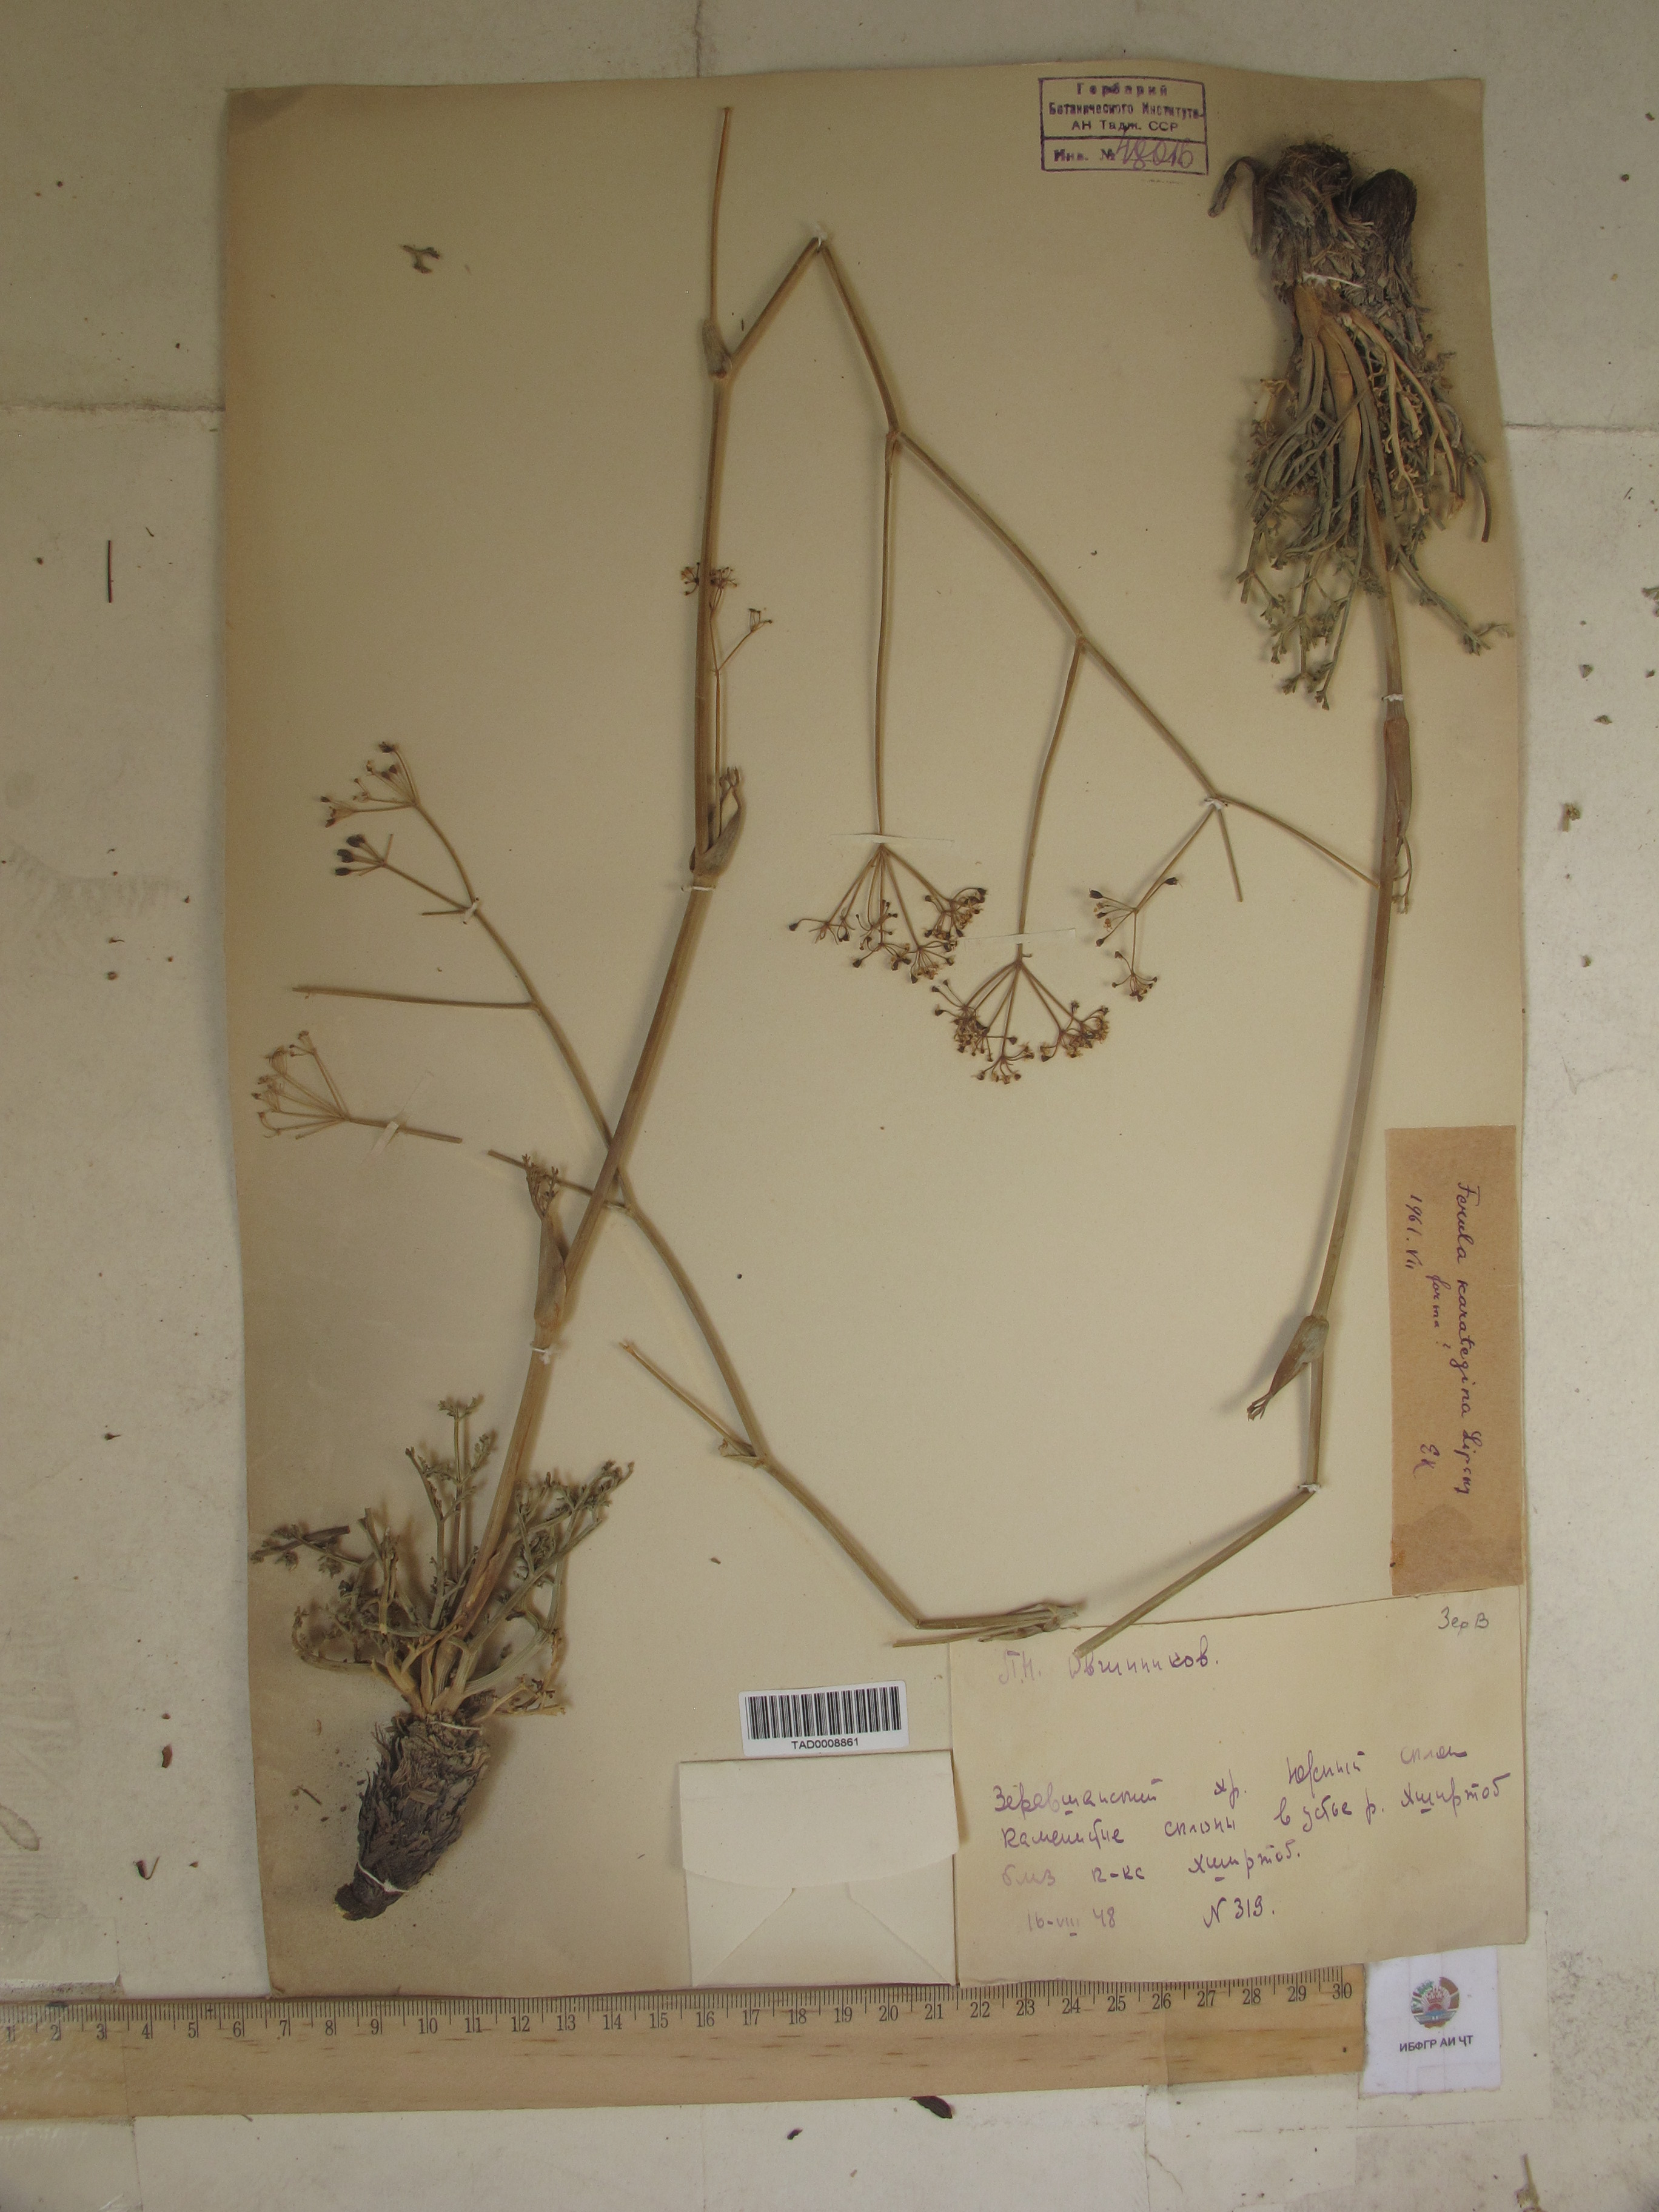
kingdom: Plantae
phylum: Tracheophyta
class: Magnoliopsida
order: Apiales
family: Apiaceae
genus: Ferula
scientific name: Ferula karategina
